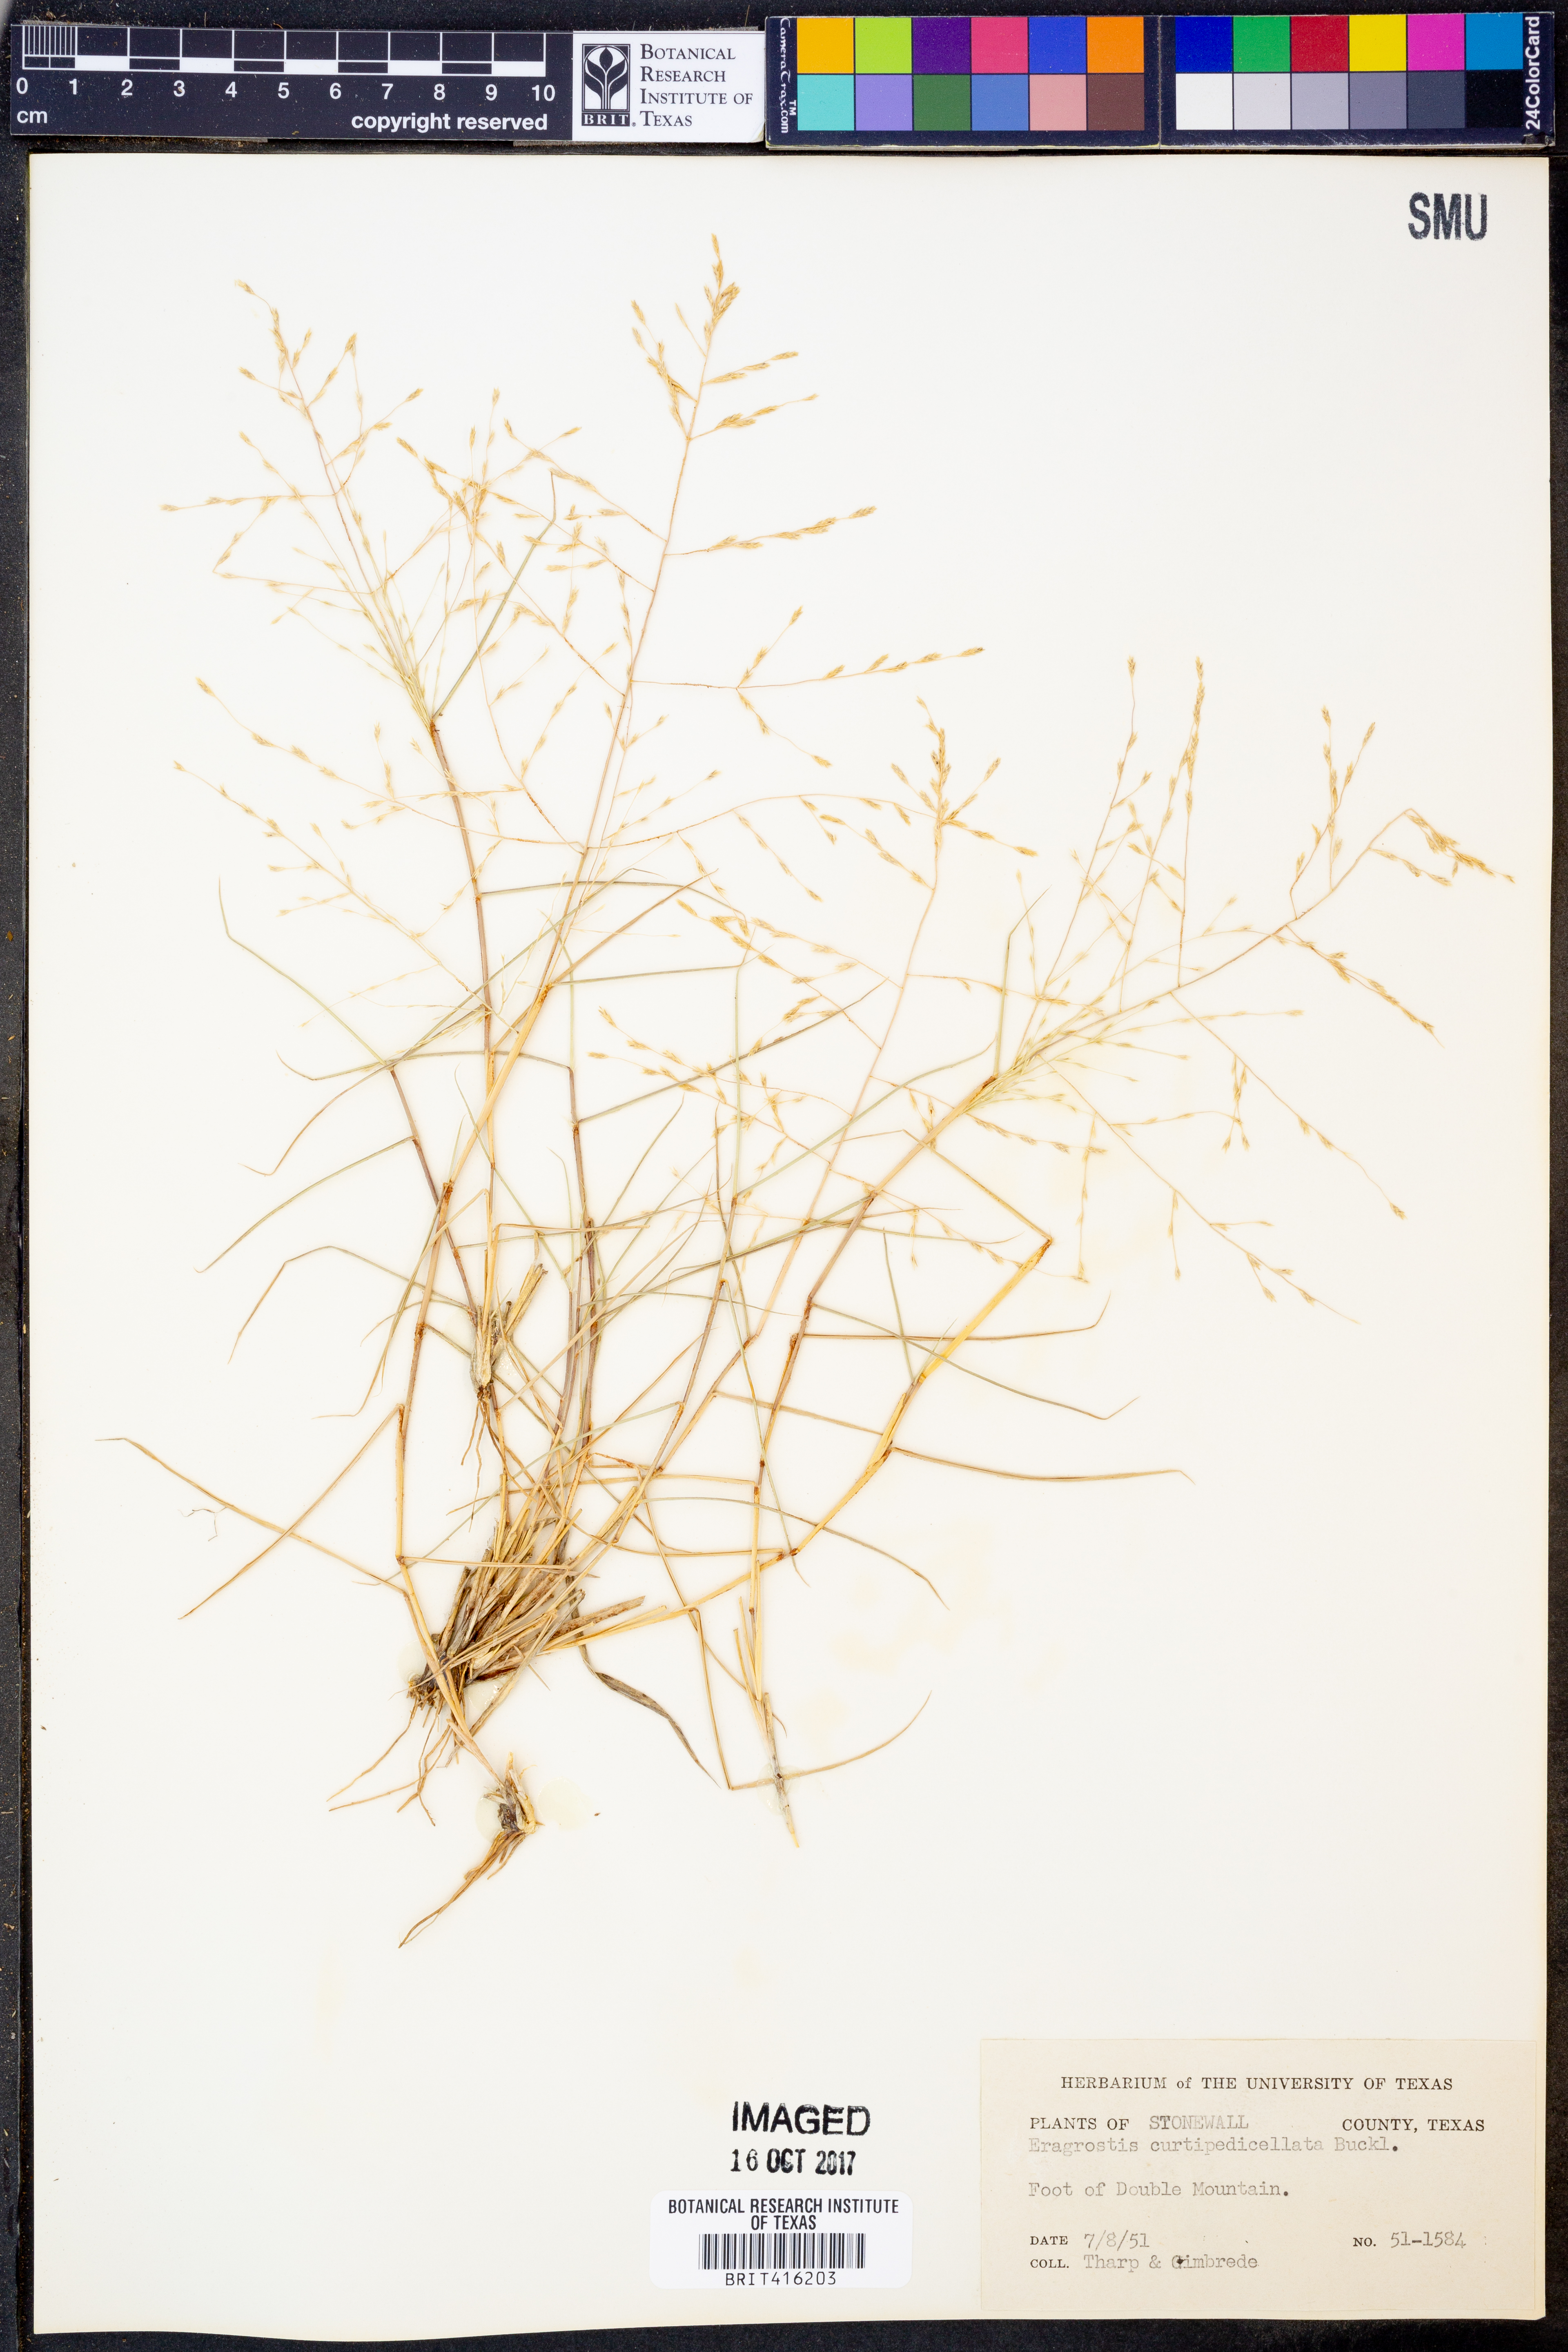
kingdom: Plantae
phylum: Tracheophyta
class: Liliopsida
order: Poales
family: Poaceae
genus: Eragrostis
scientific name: Eragrostis curtipedicellata
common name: Gummy love grass
